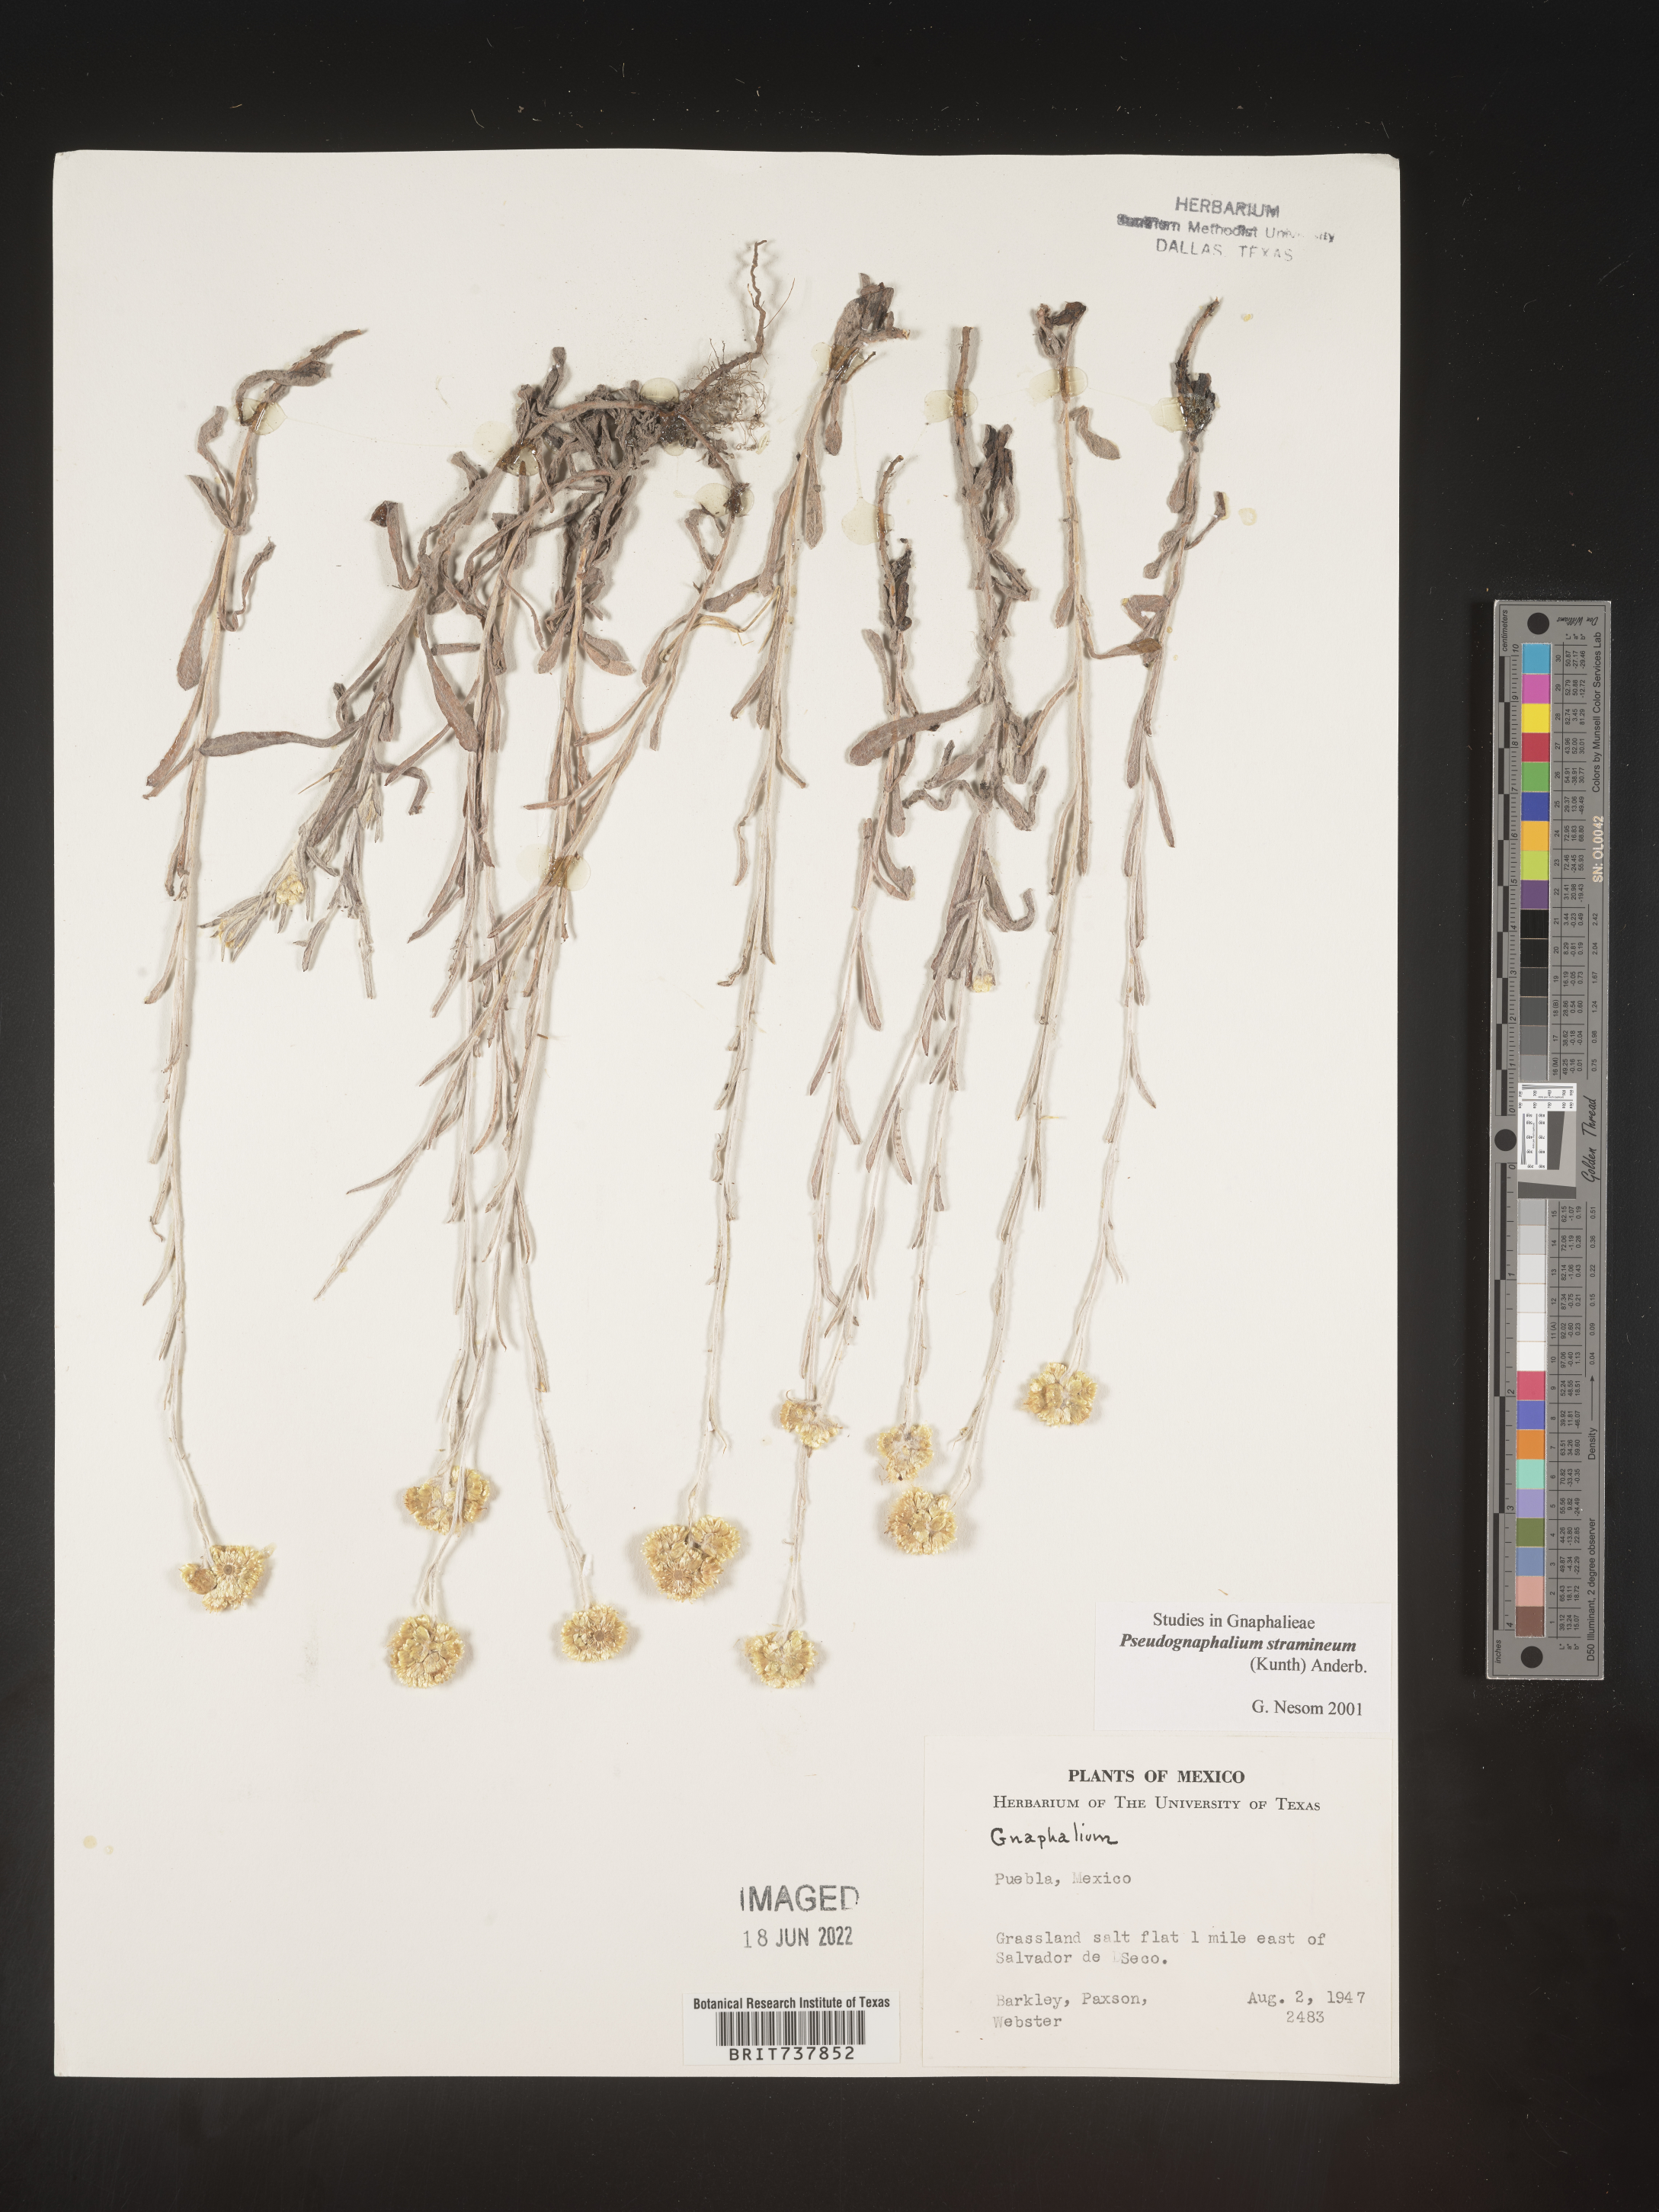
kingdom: Plantae
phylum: Tracheophyta
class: Magnoliopsida
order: Asterales
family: Asteraceae
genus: Pseudognaphalium
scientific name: Pseudognaphalium stramineum
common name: Cotton-batting-plant
